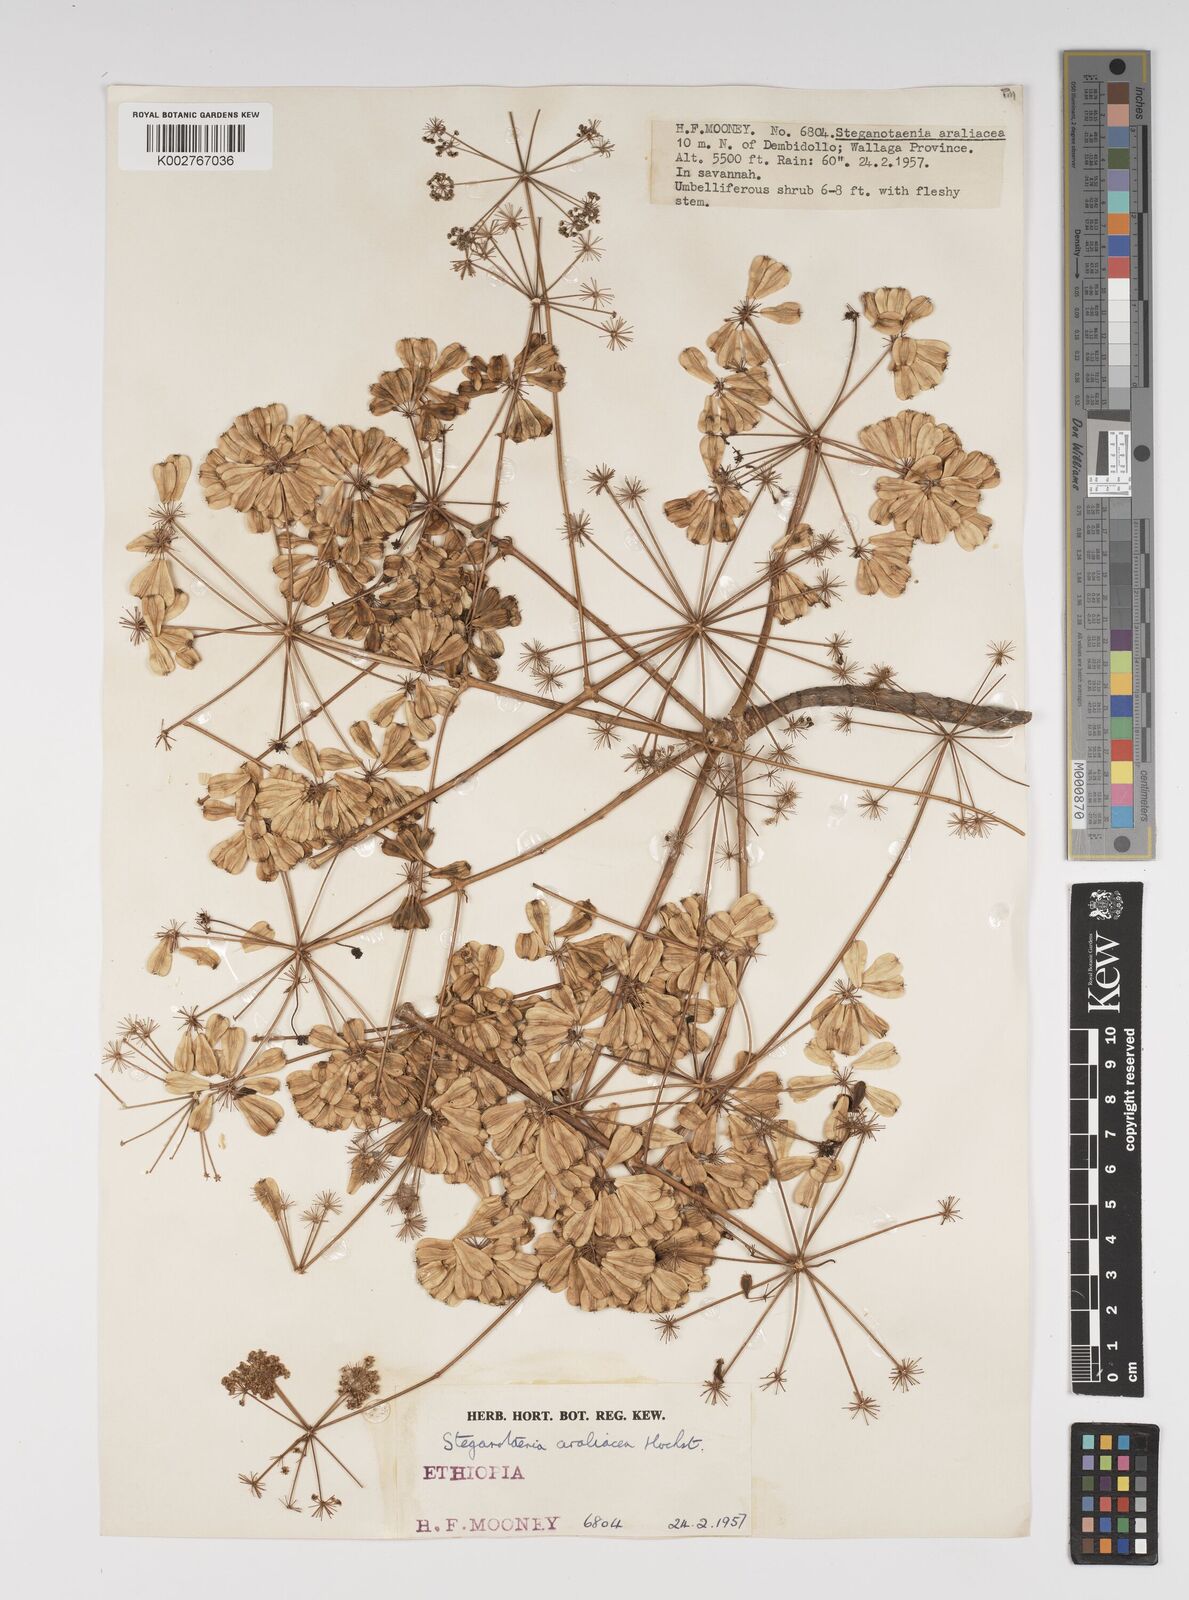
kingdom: Plantae
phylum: Tracheophyta
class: Magnoliopsida
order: Apiales
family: Apiaceae
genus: Steganotaenia
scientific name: Steganotaenia araliacea
